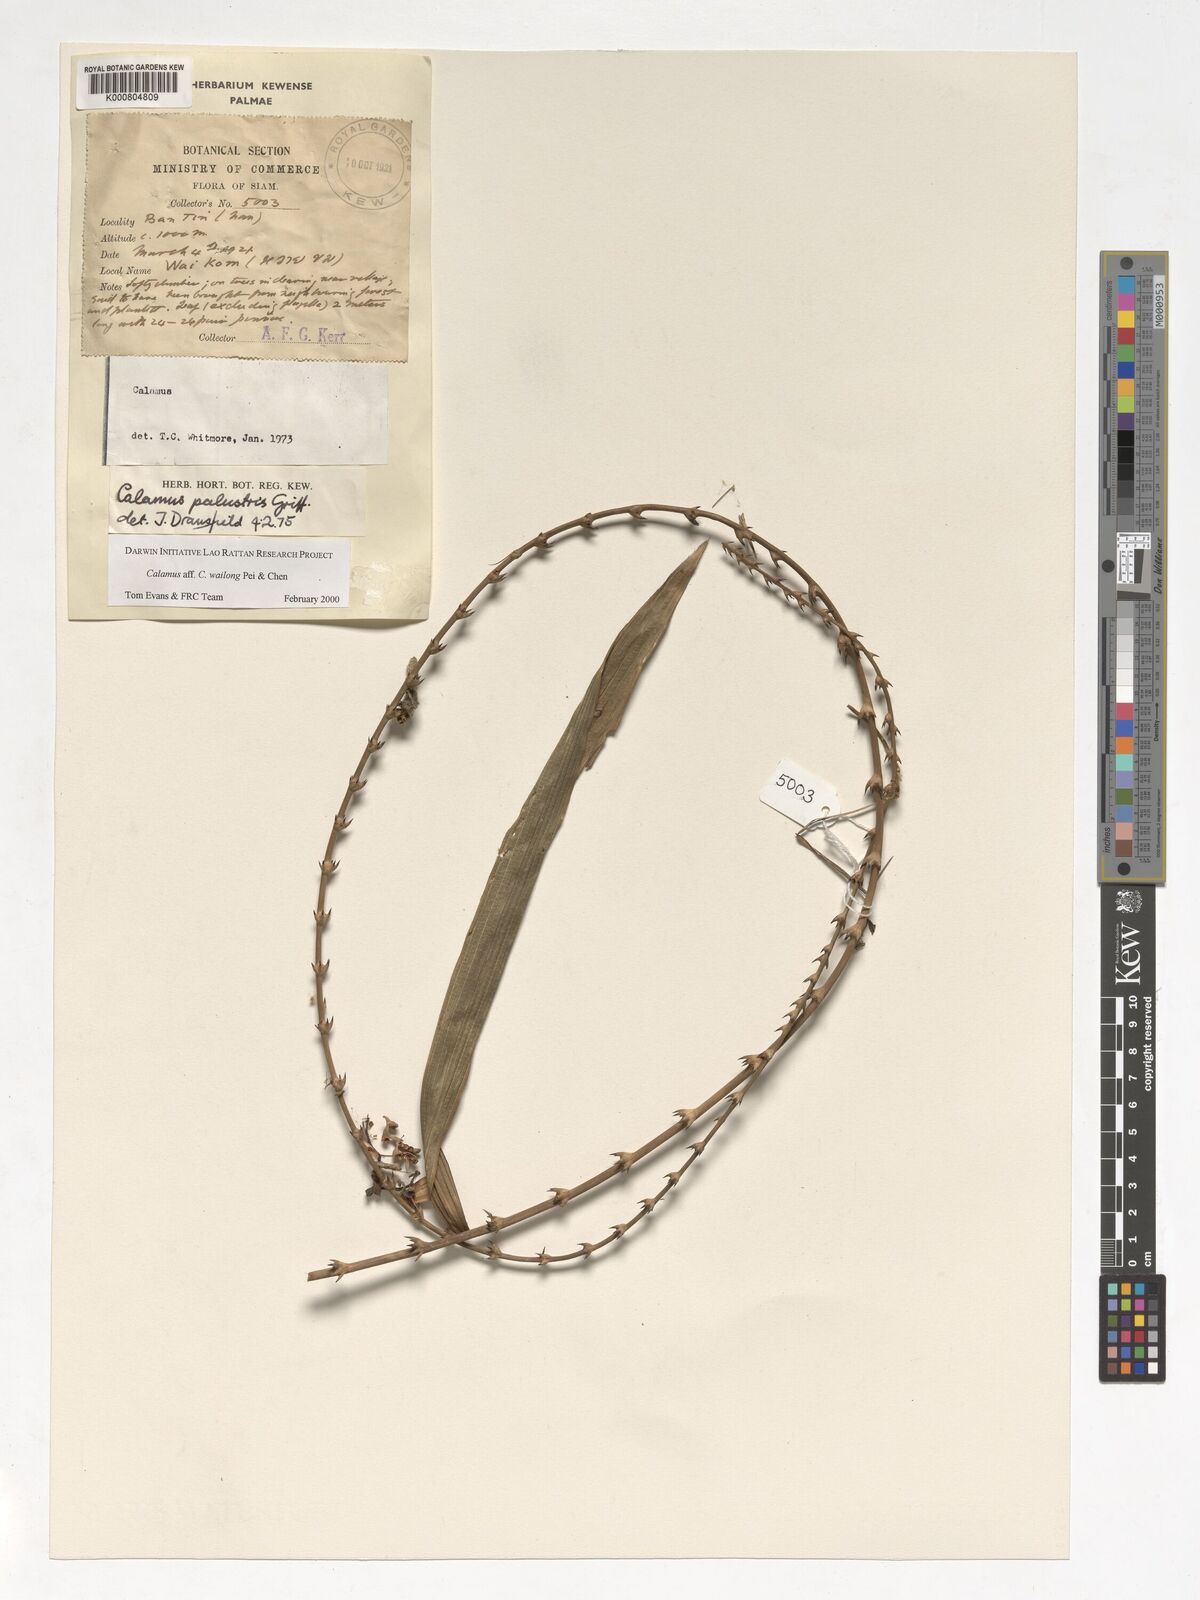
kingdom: Plantae
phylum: Tracheophyta
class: Liliopsida
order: Arecales
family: Arecaceae
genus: Calamus
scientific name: Calamus inermis
